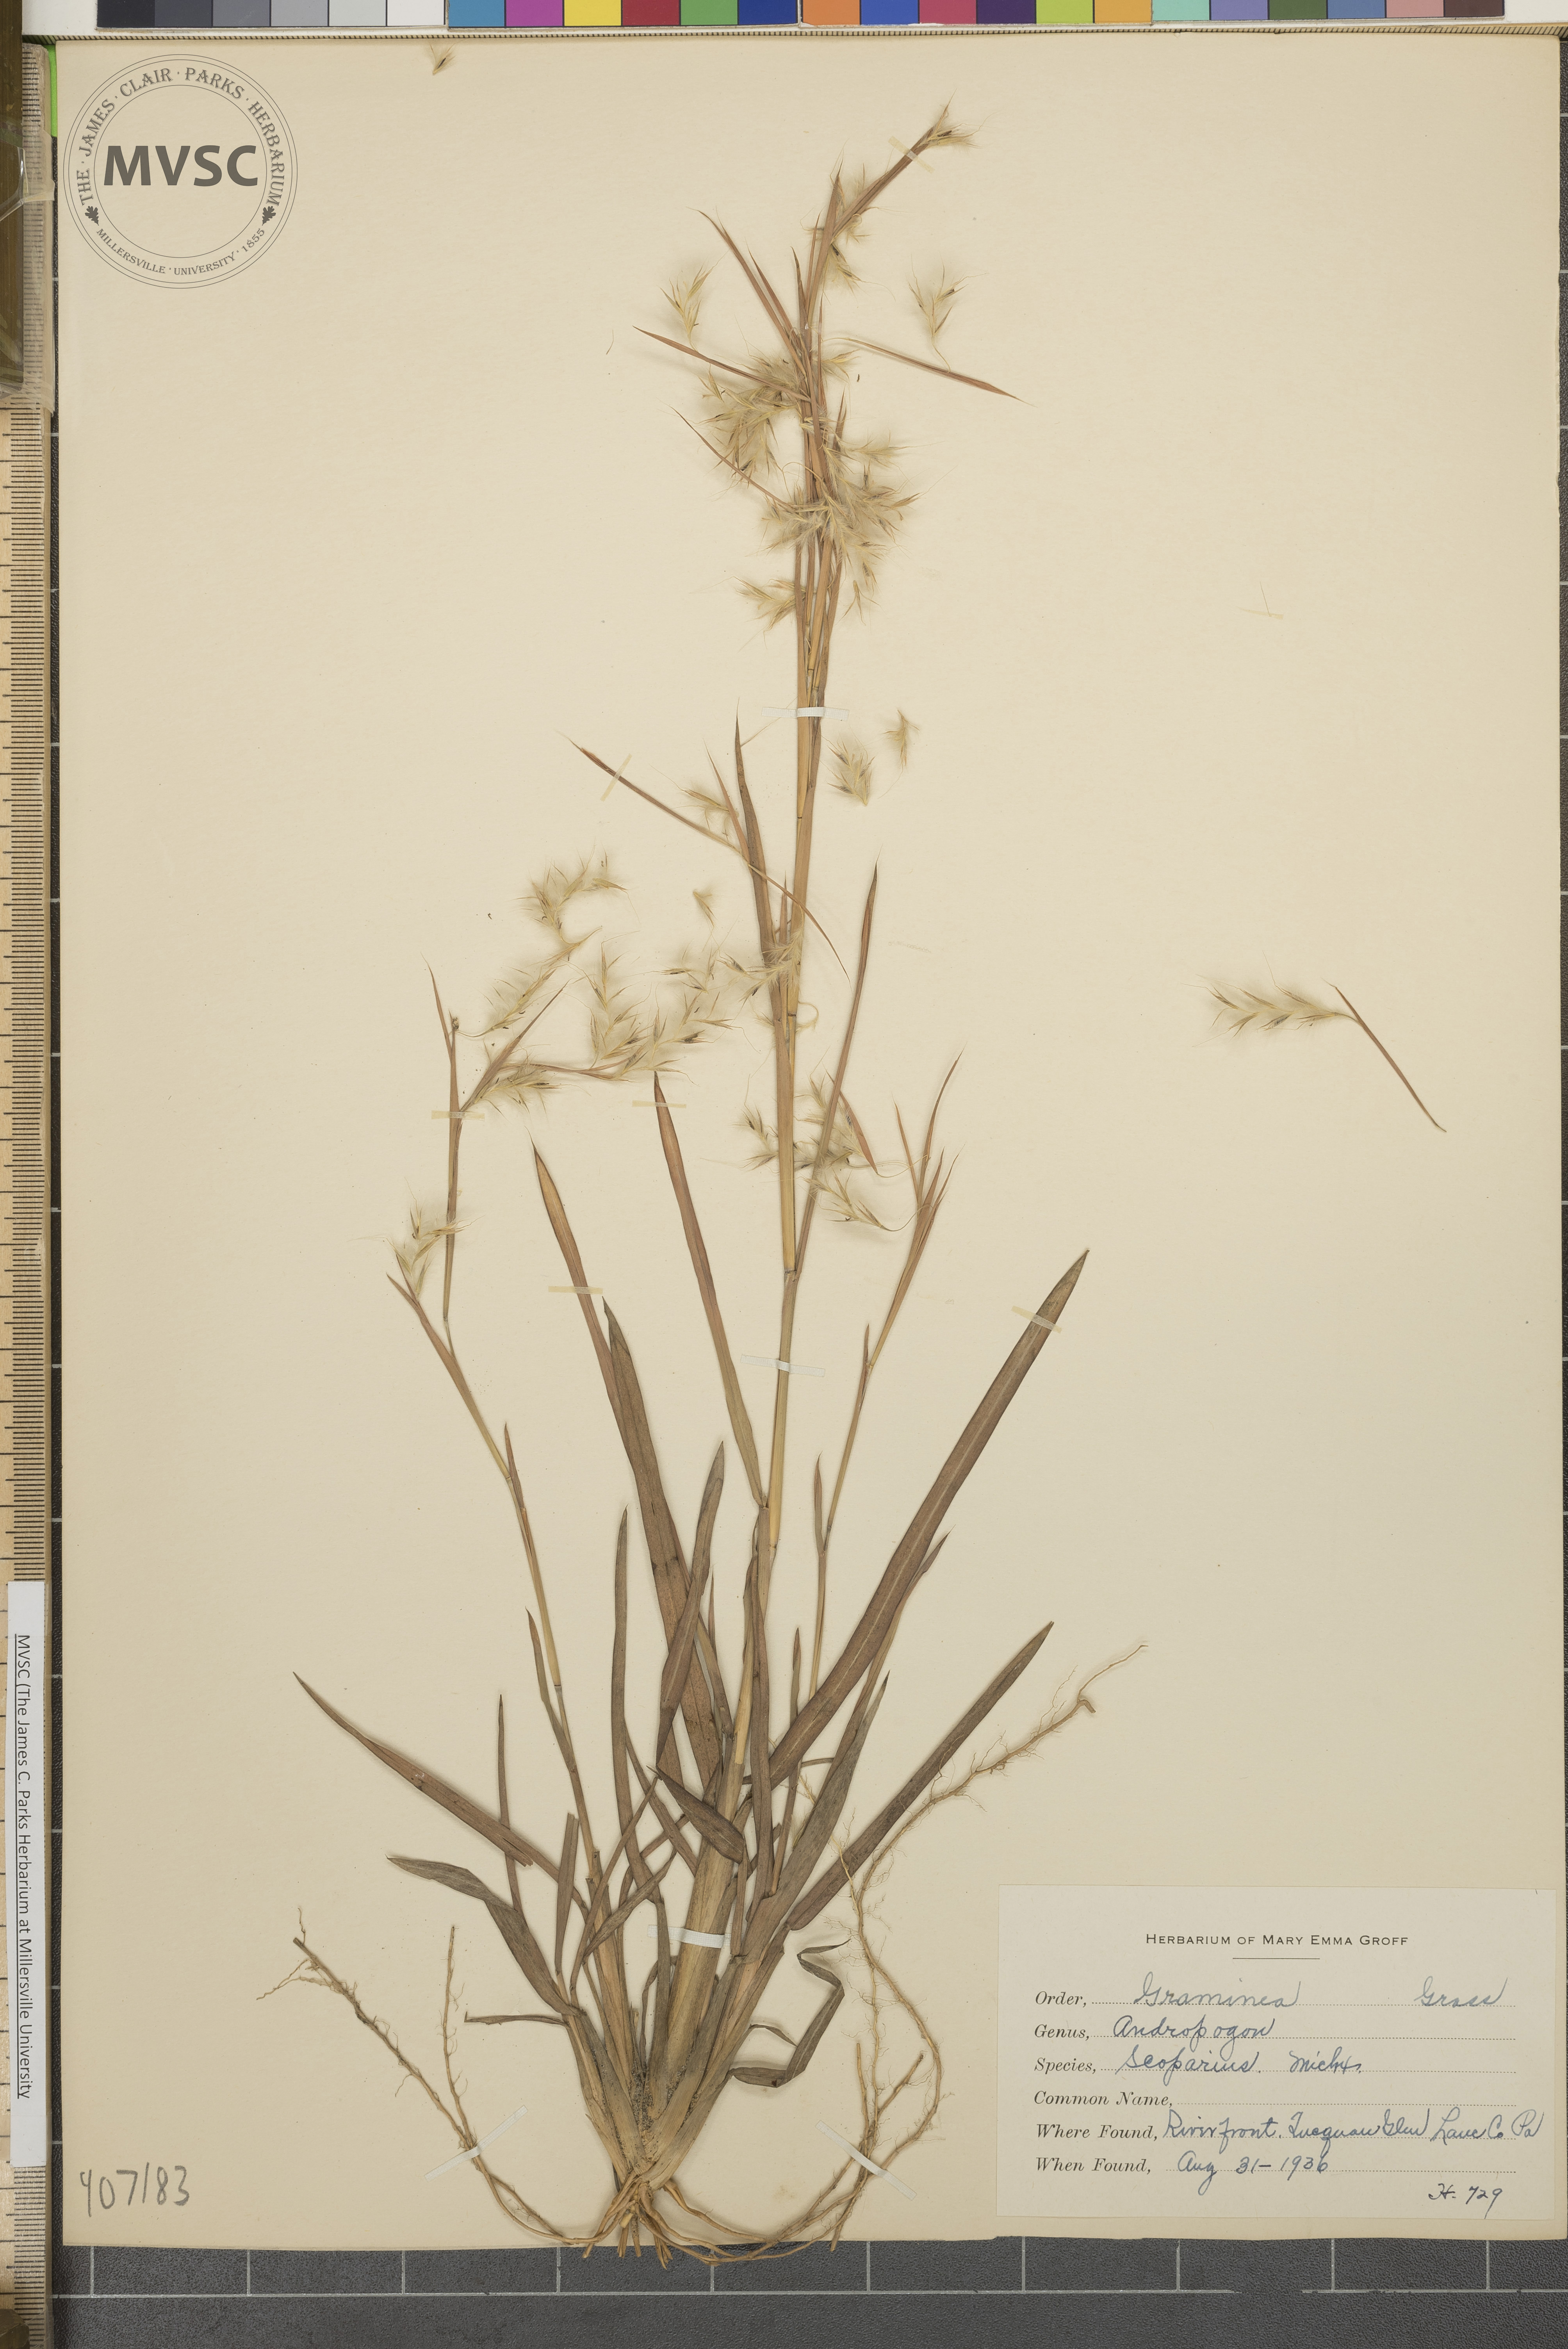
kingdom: Plantae
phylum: Tracheophyta
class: Liliopsida
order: Poales
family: Poaceae
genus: Schizachyrium
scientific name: Schizachyrium scoparium
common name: Little bluestem
